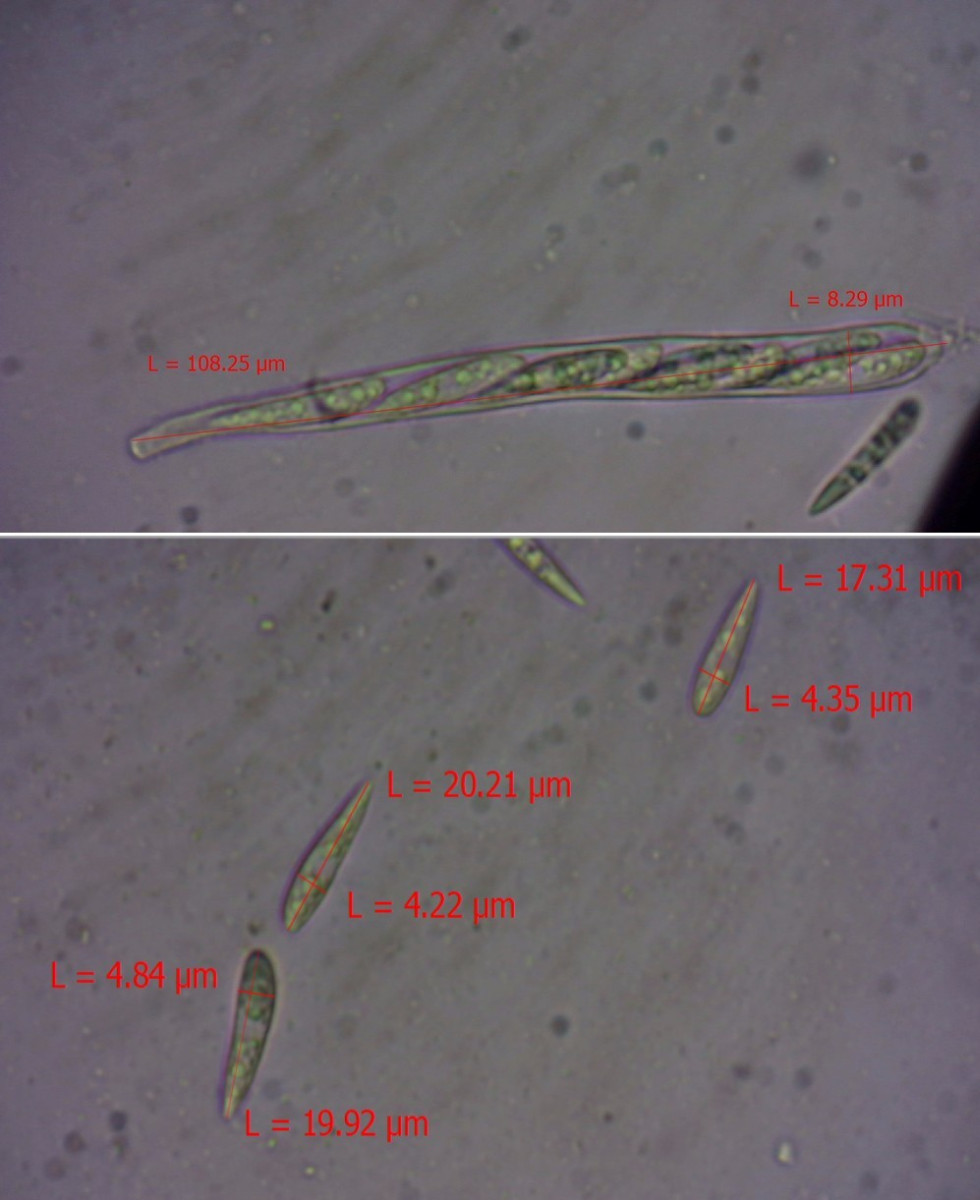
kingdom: Fungi
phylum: Ascomycota
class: Leotiomycetes
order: Helotiales
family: Helotiaceae
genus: Hymenoscyphus
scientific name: Hymenoscyphus
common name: stilkskive
